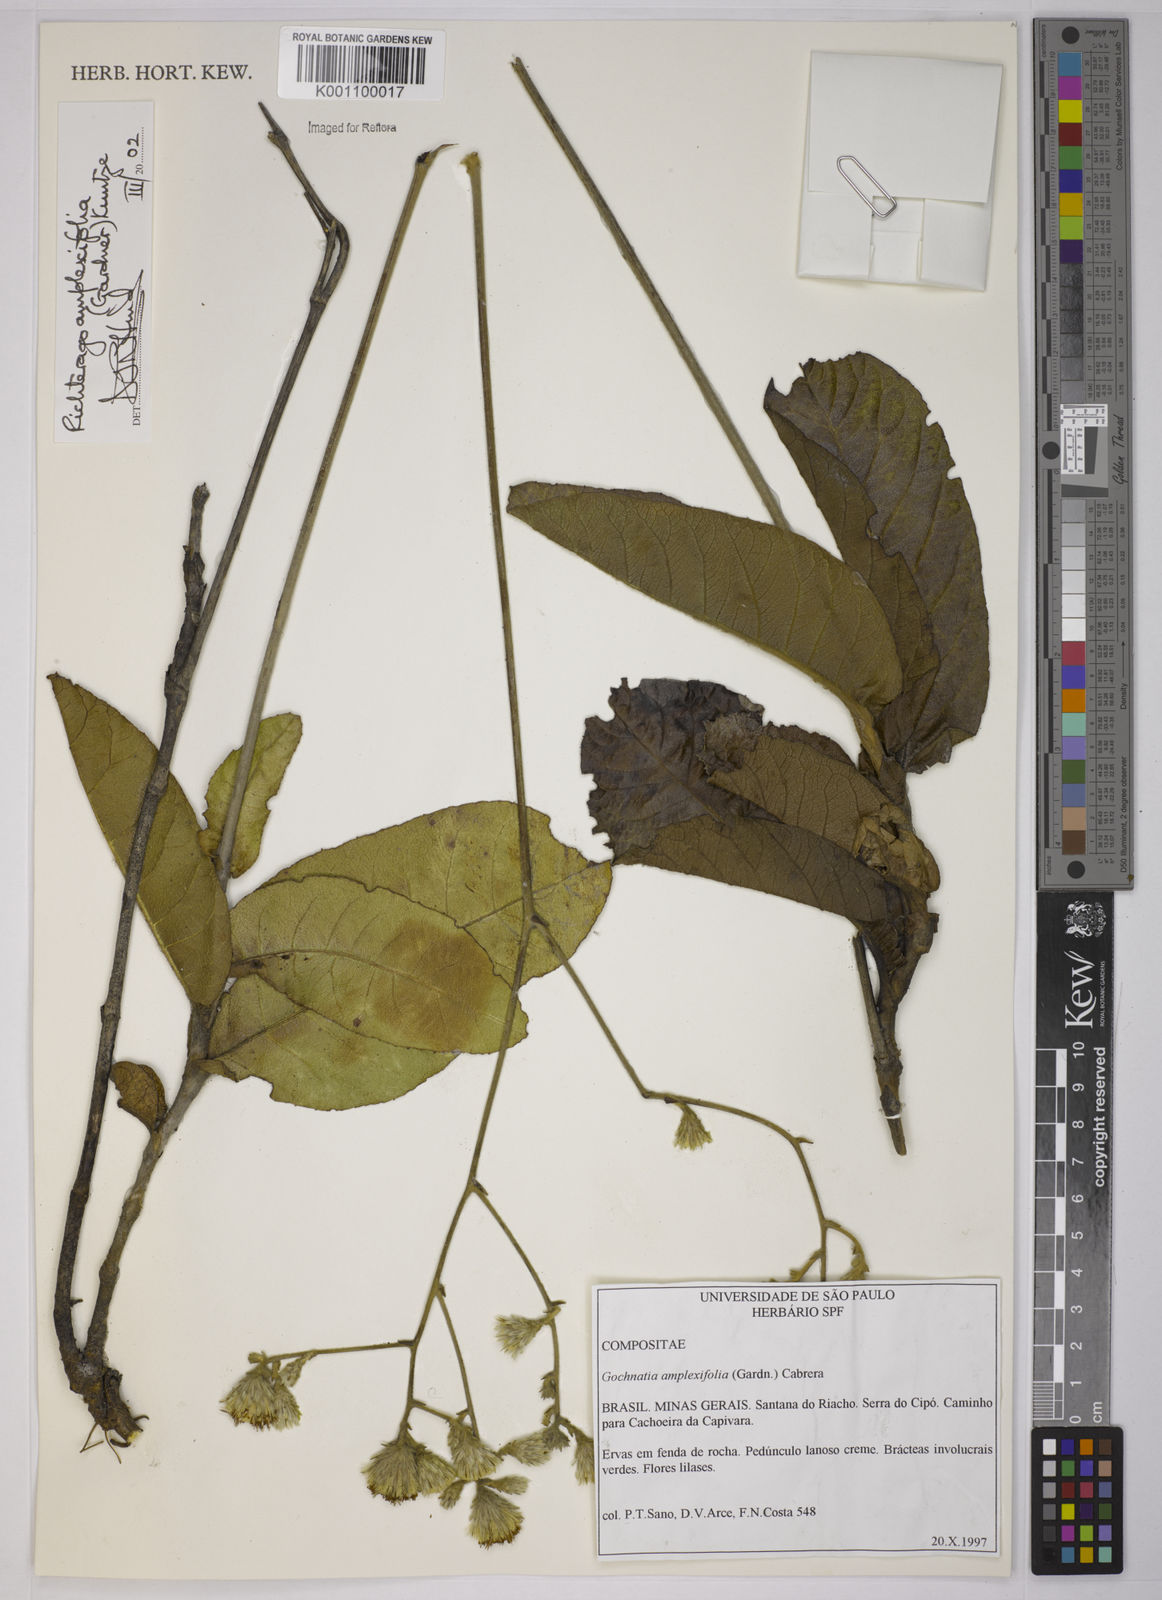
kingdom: Plantae
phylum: Tracheophyta
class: Magnoliopsida
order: Asterales
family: Asteraceae
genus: Richterago
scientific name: Richterago amplexifolia
